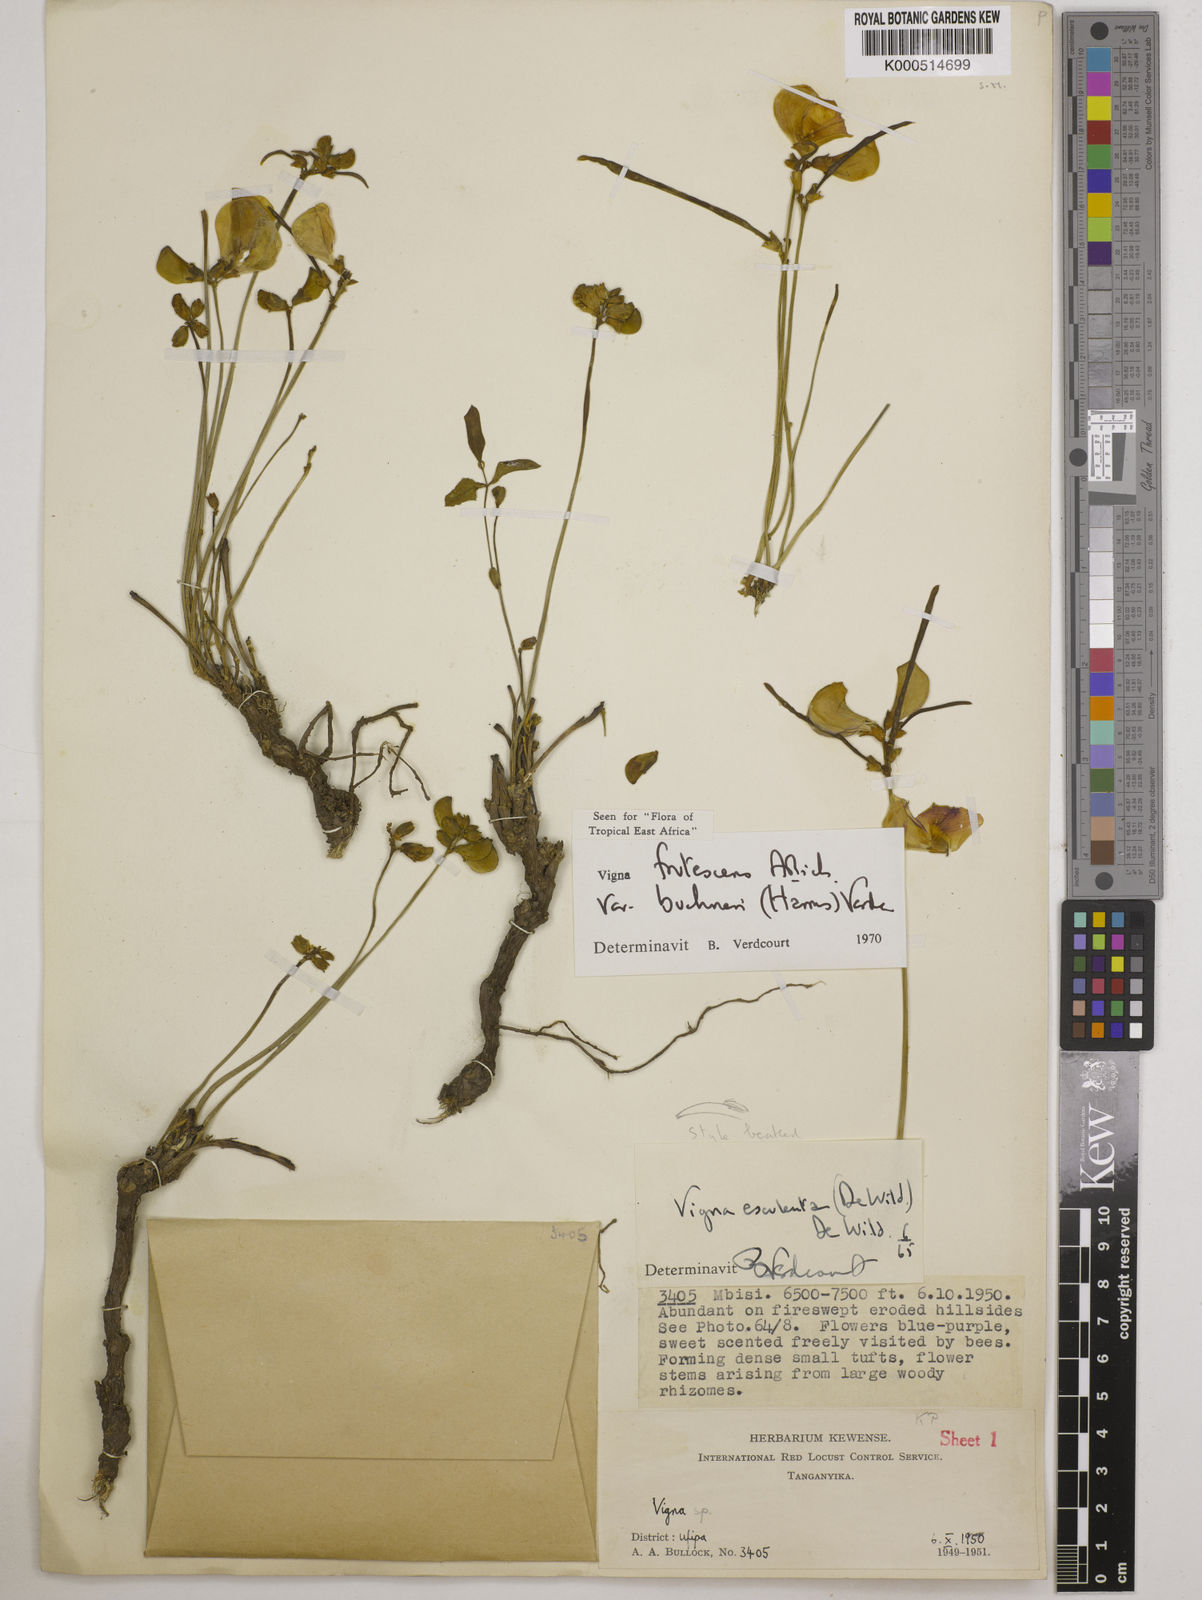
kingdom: Plantae
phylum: Tracheophyta
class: Magnoliopsida
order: Fabales
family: Fabaceae
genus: Vigna
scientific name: Vigna
